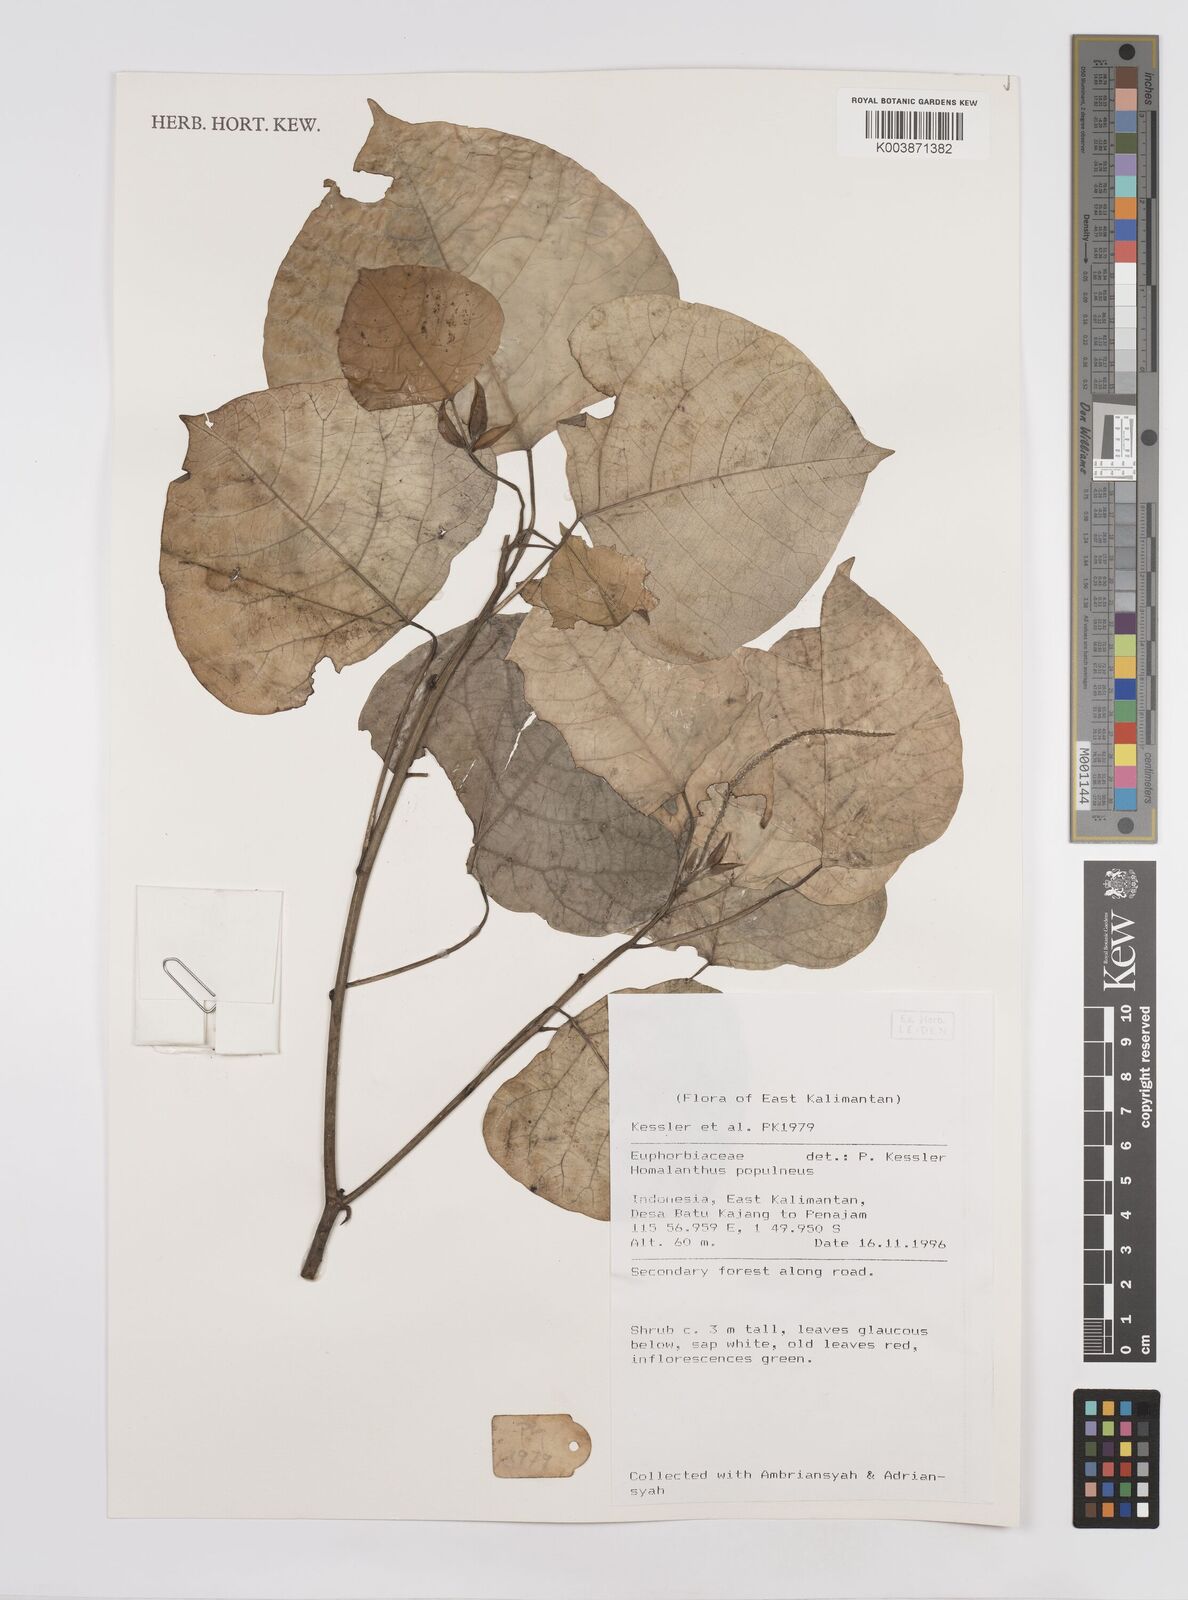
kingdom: Plantae
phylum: Tracheophyta
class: Magnoliopsida
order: Malpighiales
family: Euphorbiaceae
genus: Homalanthus
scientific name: Homalanthus populneus
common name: Spurge
